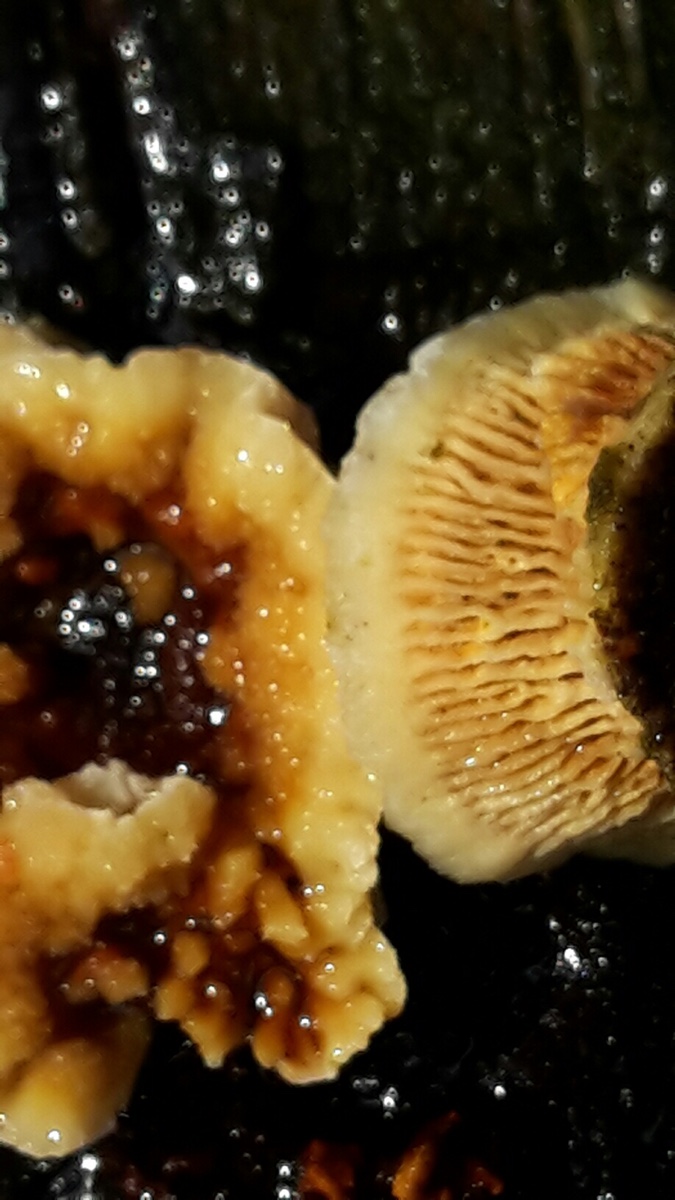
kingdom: Fungi
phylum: Basidiomycota
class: Agaricomycetes
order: Gloeophyllales
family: Gloeophyllaceae
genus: Gloeophyllum
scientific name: Gloeophyllum sepiarium
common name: fyrre-korkhat
